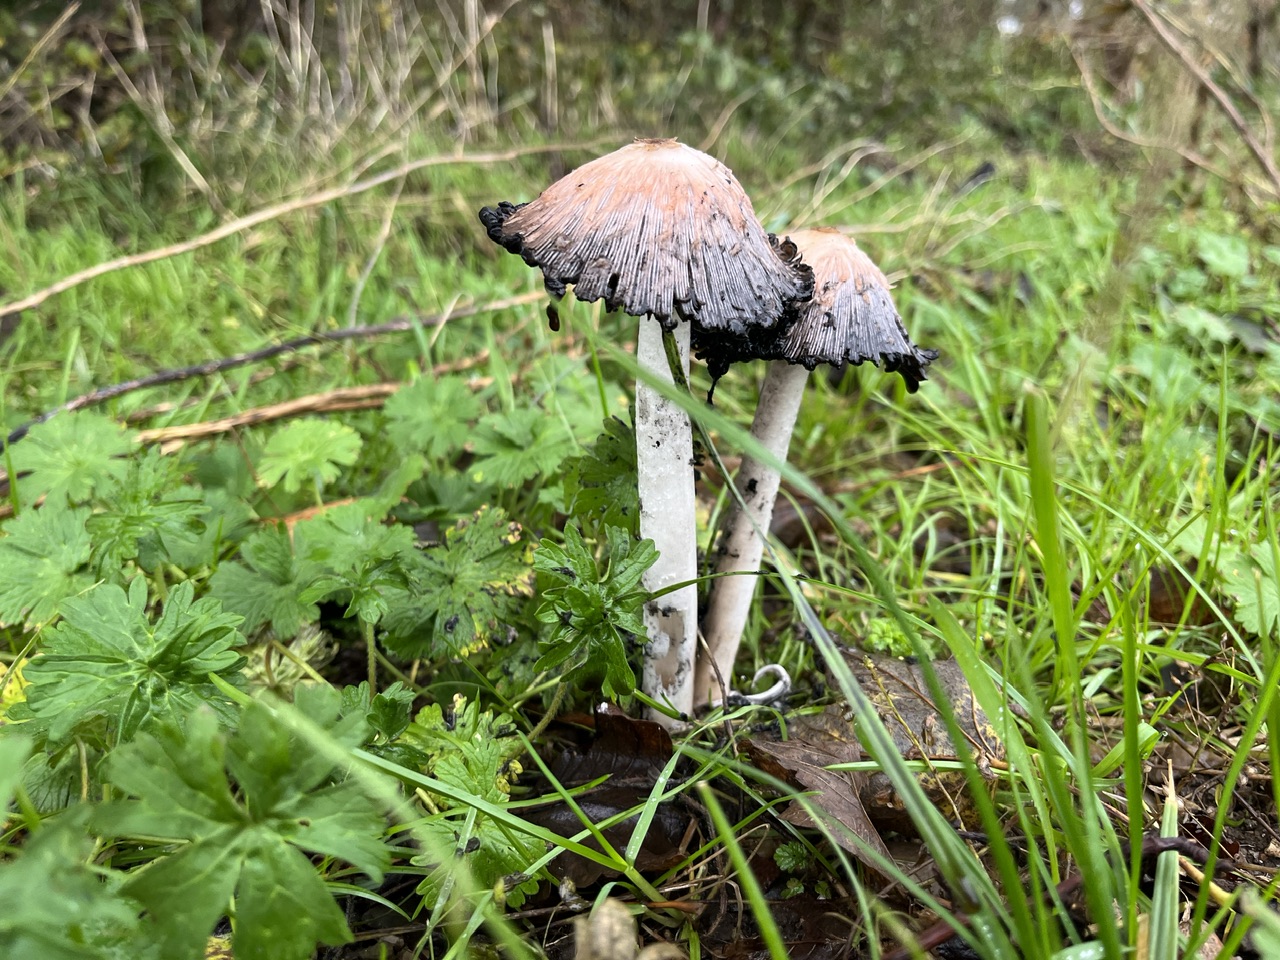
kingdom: Fungi
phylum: Basidiomycota
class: Agaricomycetes
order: Agaricales
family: Agaricaceae
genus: Coprinus
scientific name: Coprinus comatus
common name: stor parykhat
